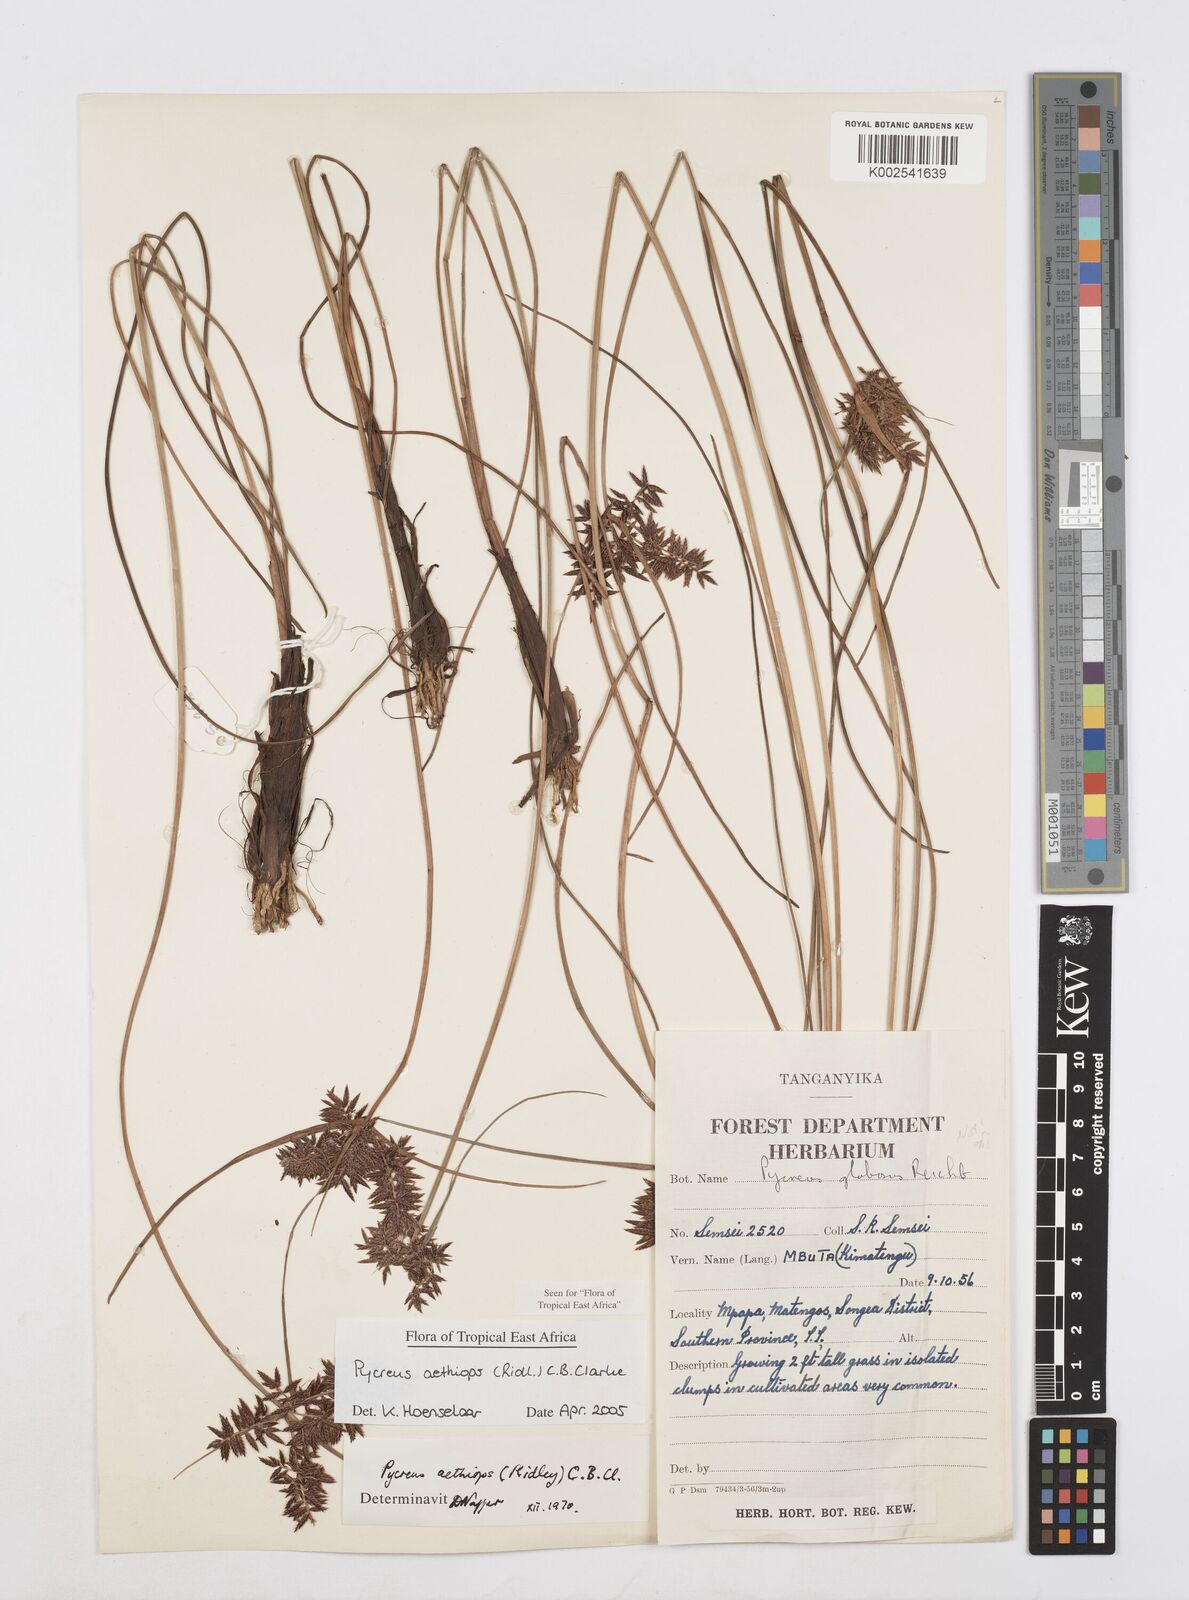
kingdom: Plantae
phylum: Tracheophyta
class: Liliopsida
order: Poales
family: Cyperaceae
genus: Cyperus
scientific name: Cyperus aethiops
